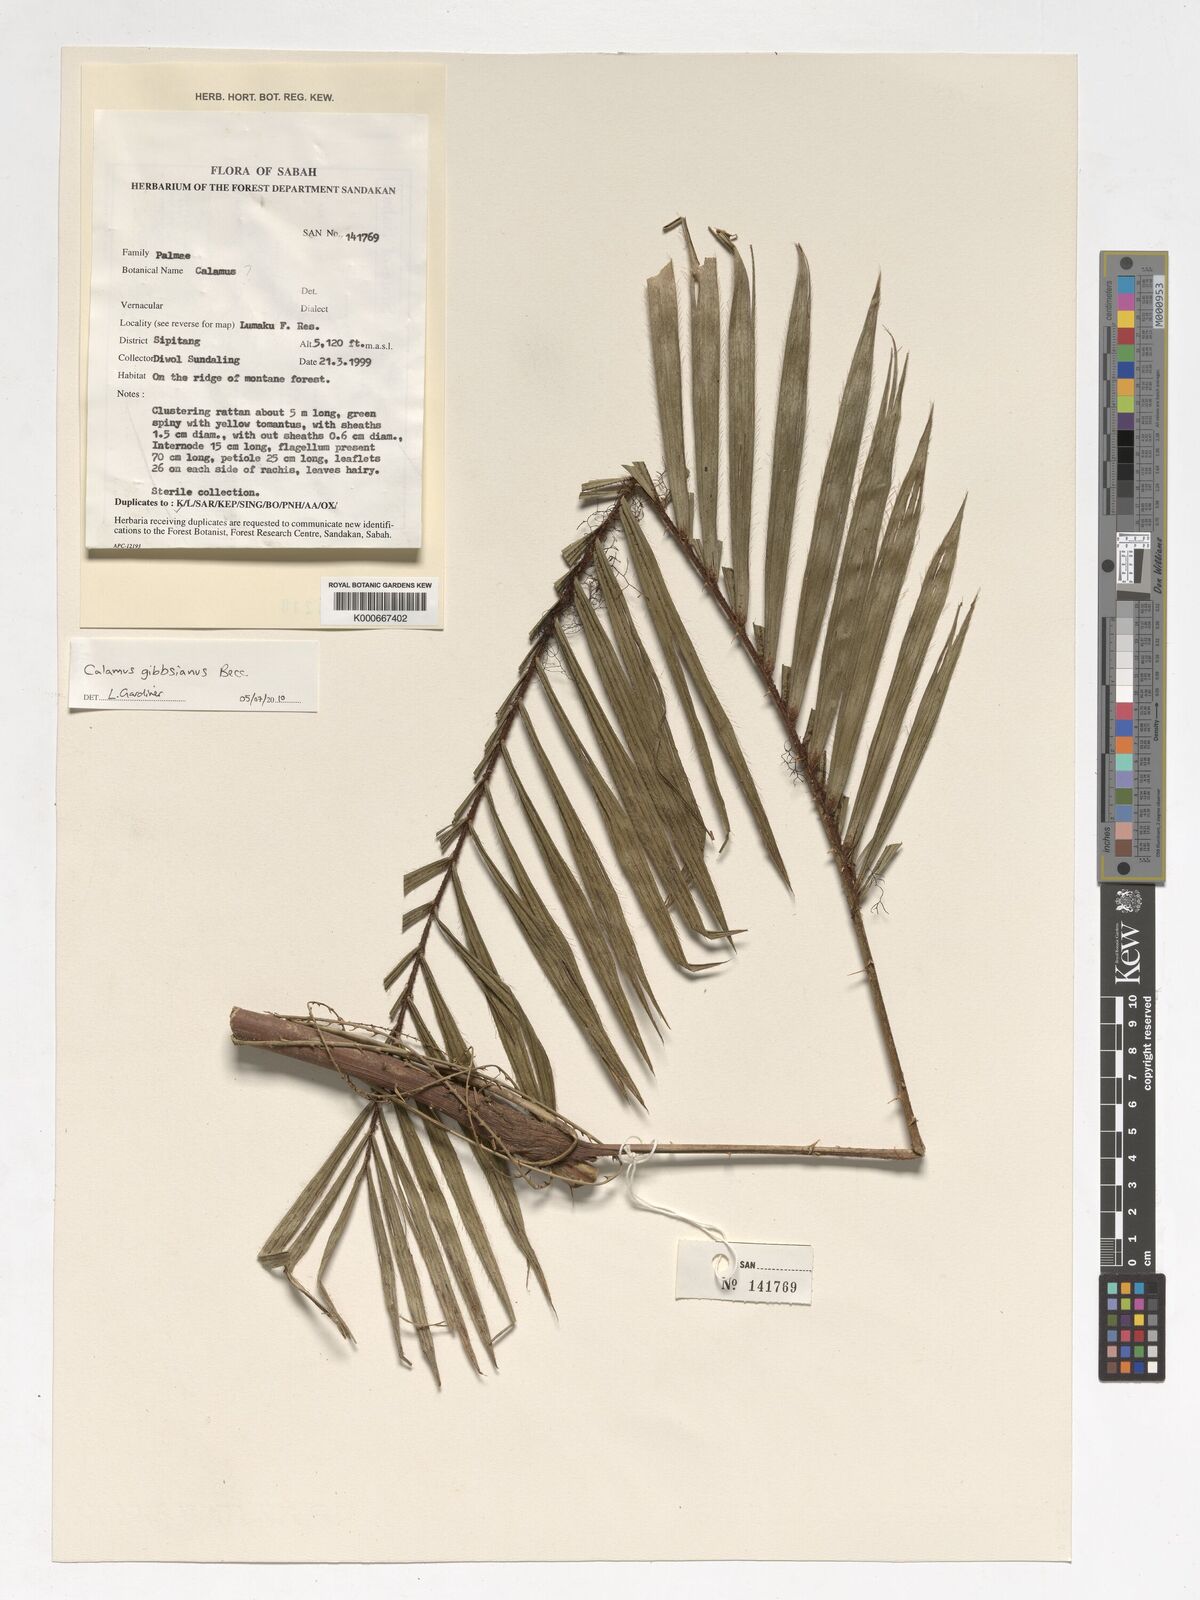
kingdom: Plantae
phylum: Tracheophyta
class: Liliopsida
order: Arecales
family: Arecaceae
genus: Calamus
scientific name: Calamus gibbsianus
